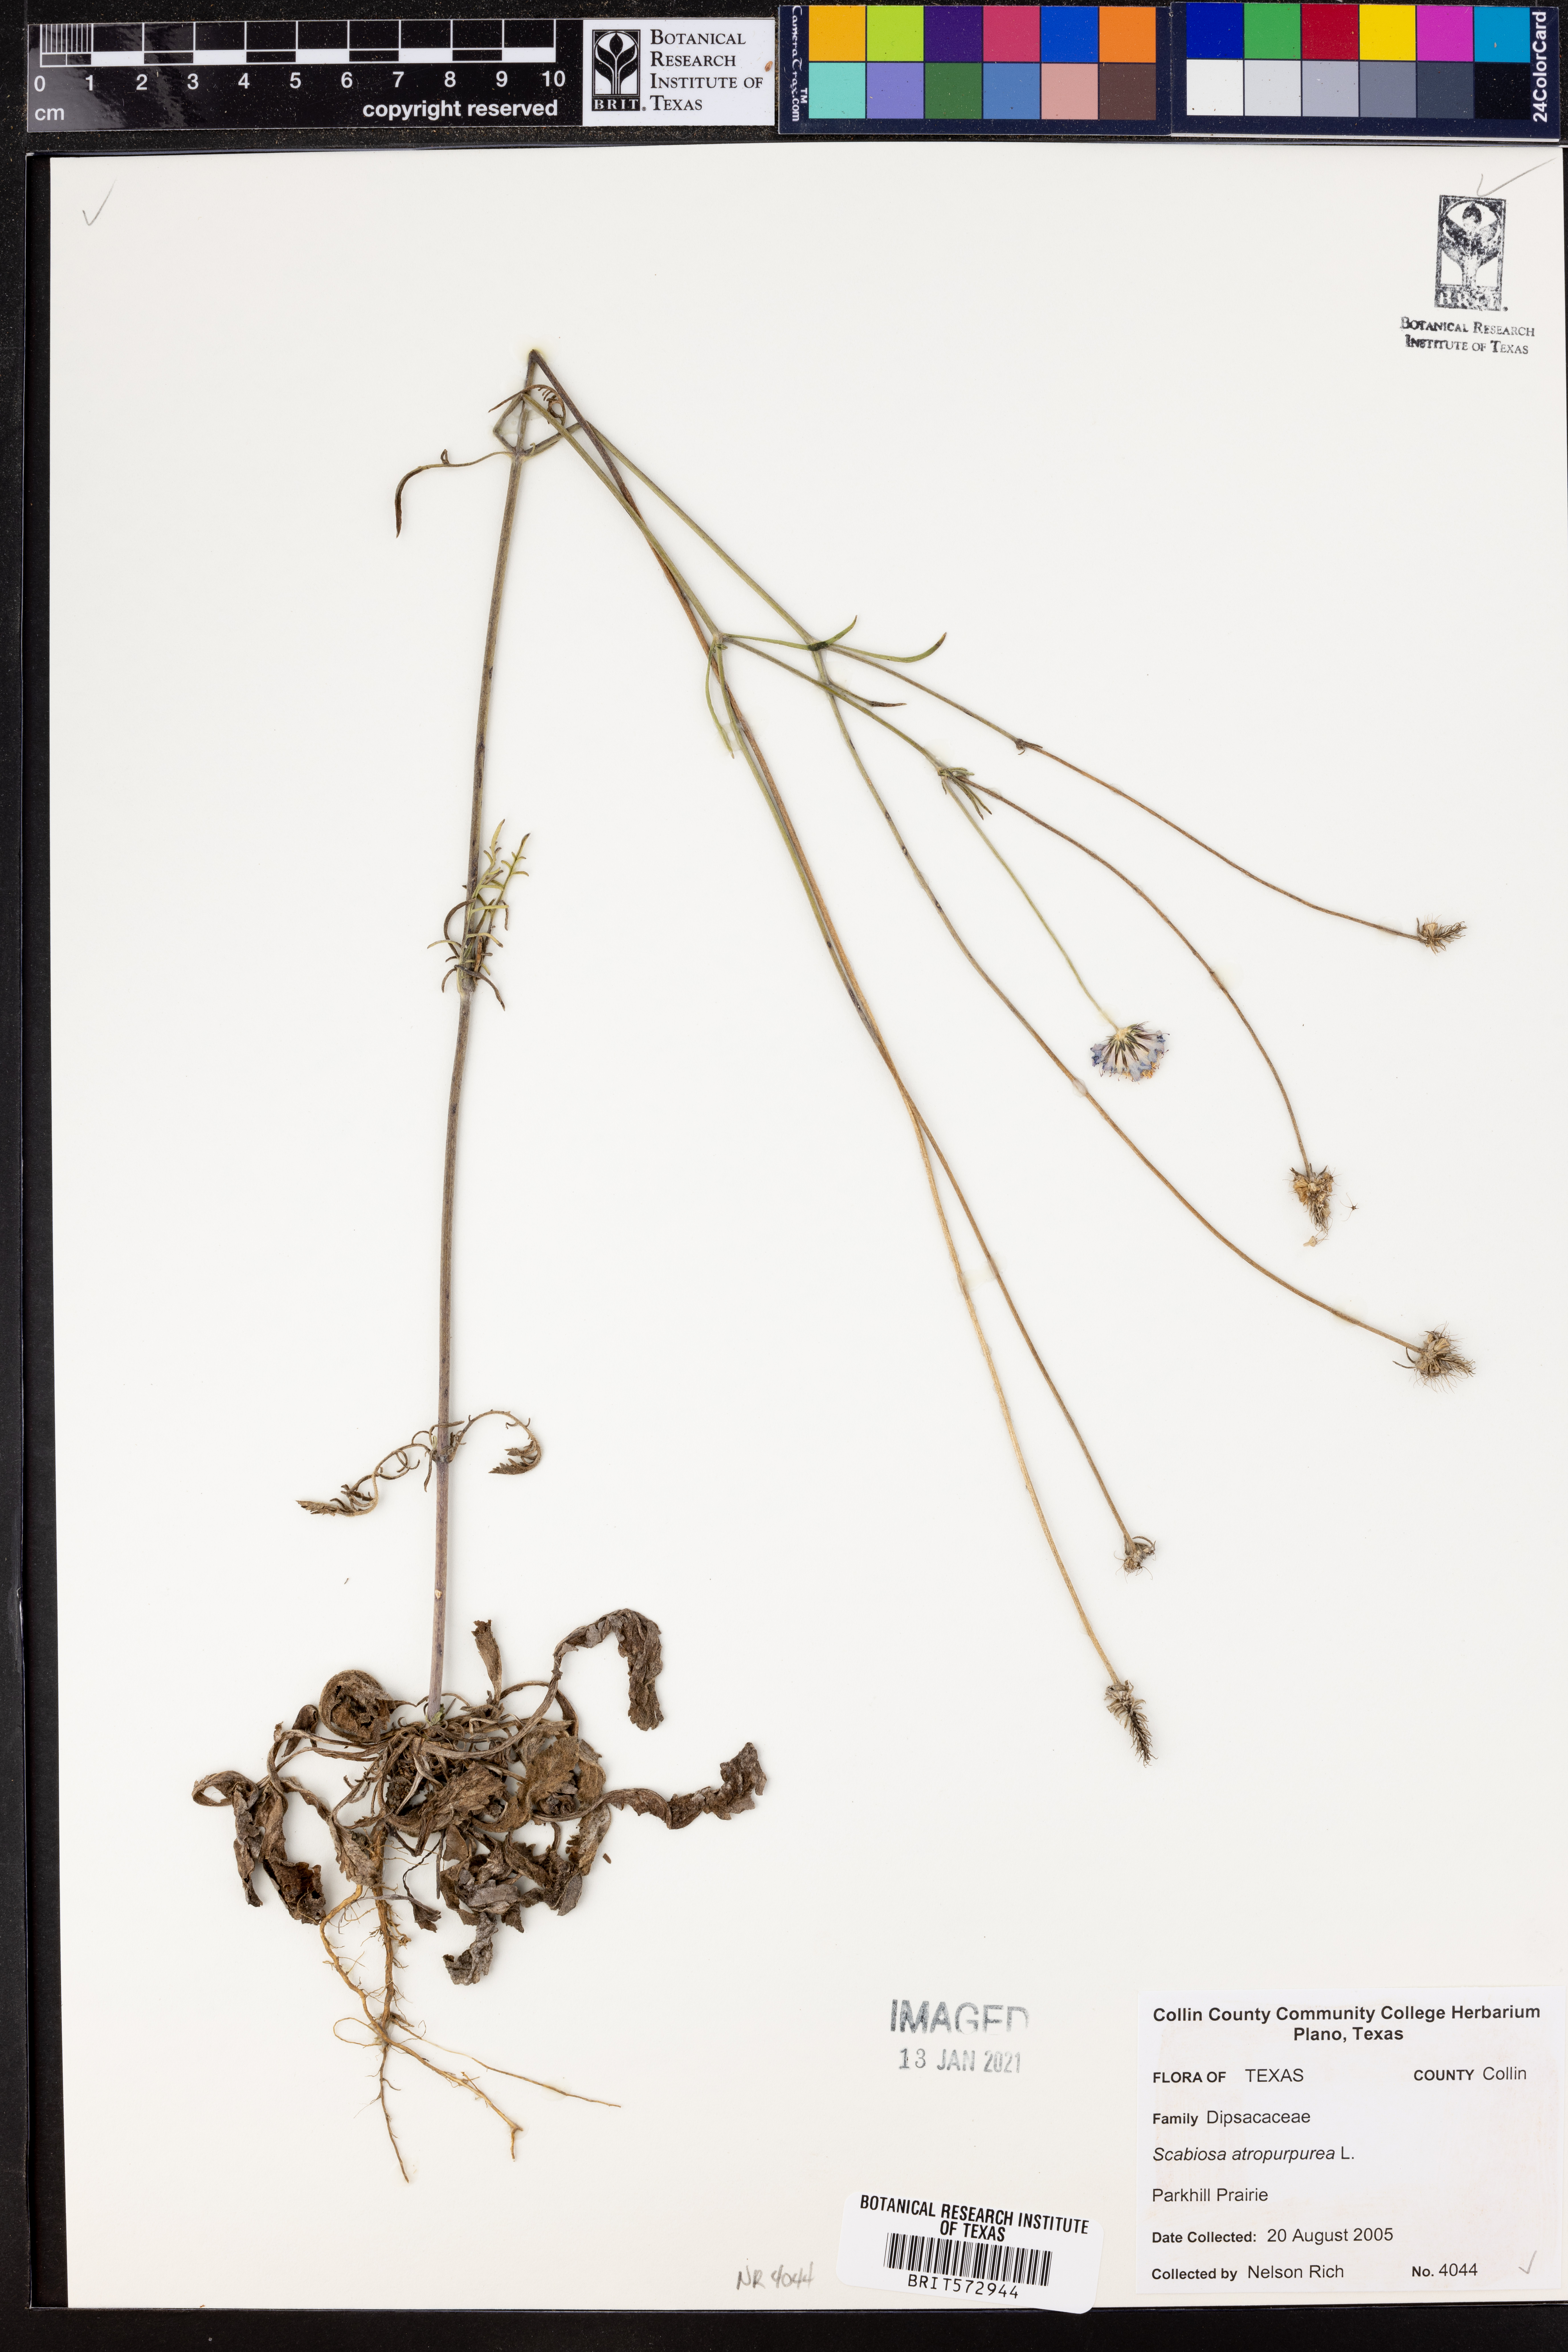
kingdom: Plantae
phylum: Tracheophyta
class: Magnoliopsida
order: Dipsacales
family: Caprifoliaceae
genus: Sixalix
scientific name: Sixalix atropurpurea
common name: Sweet scabious
